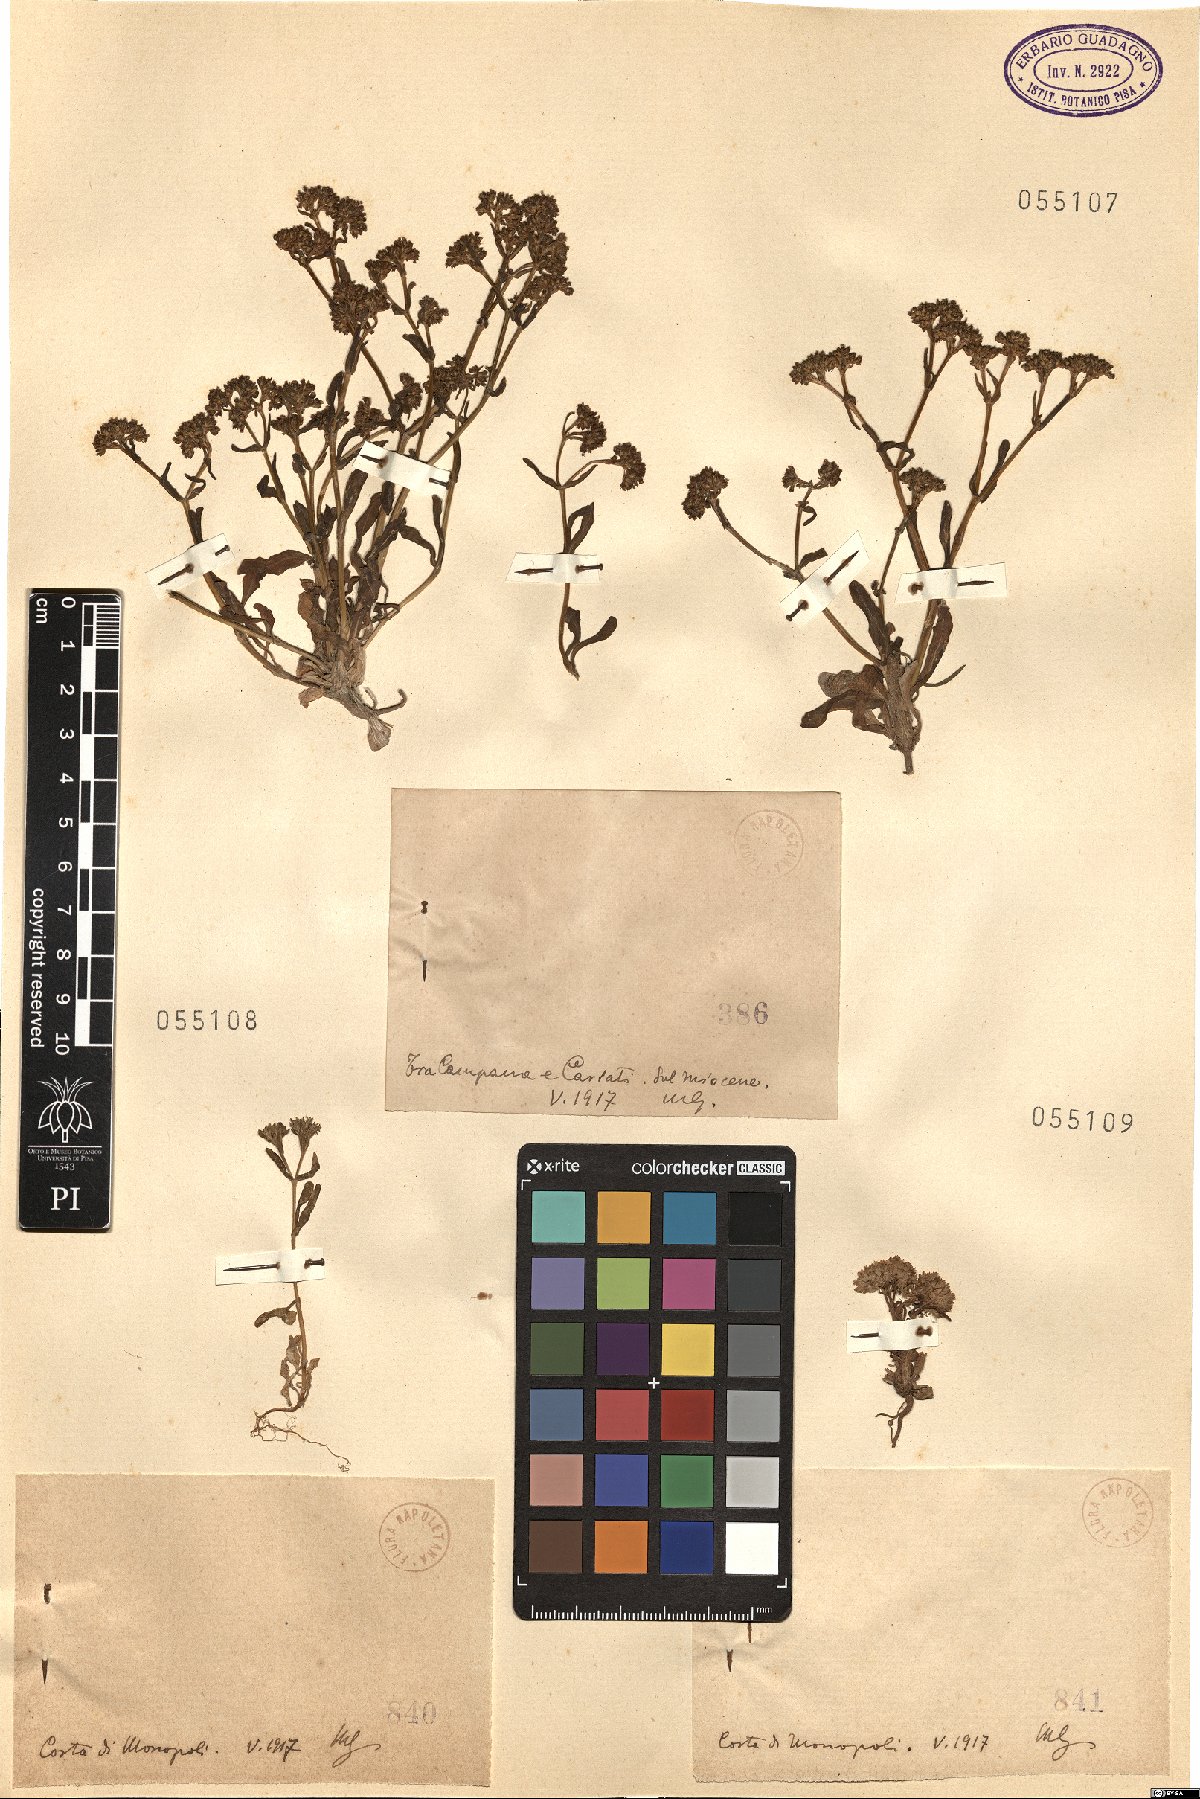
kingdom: Plantae
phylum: Tracheophyta
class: Magnoliopsida
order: Dipsacales
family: Caprifoliaceae
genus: Valerianella
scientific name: Valerianella
